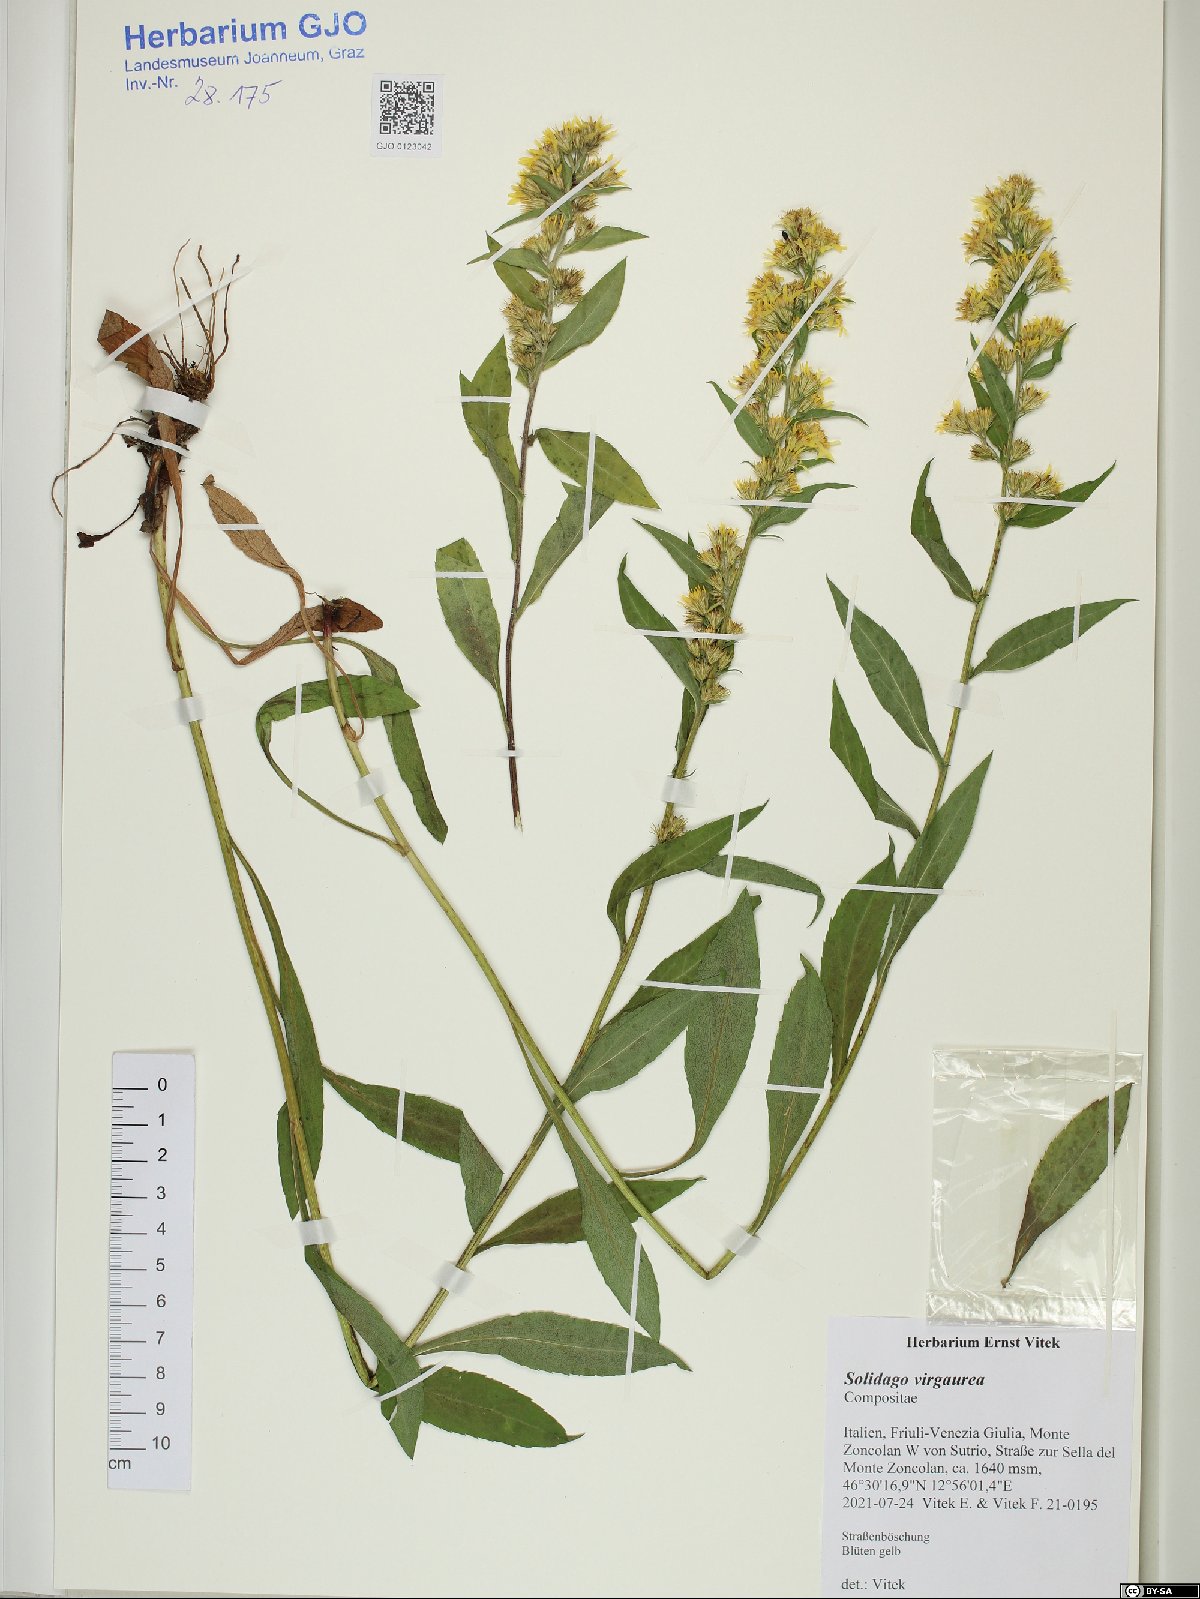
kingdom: Plantae
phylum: Tracheophyta
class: Magnoliopsida
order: Asterales
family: Asteraceae
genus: Solidago
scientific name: Solidago virgaurea
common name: Goldenrod
